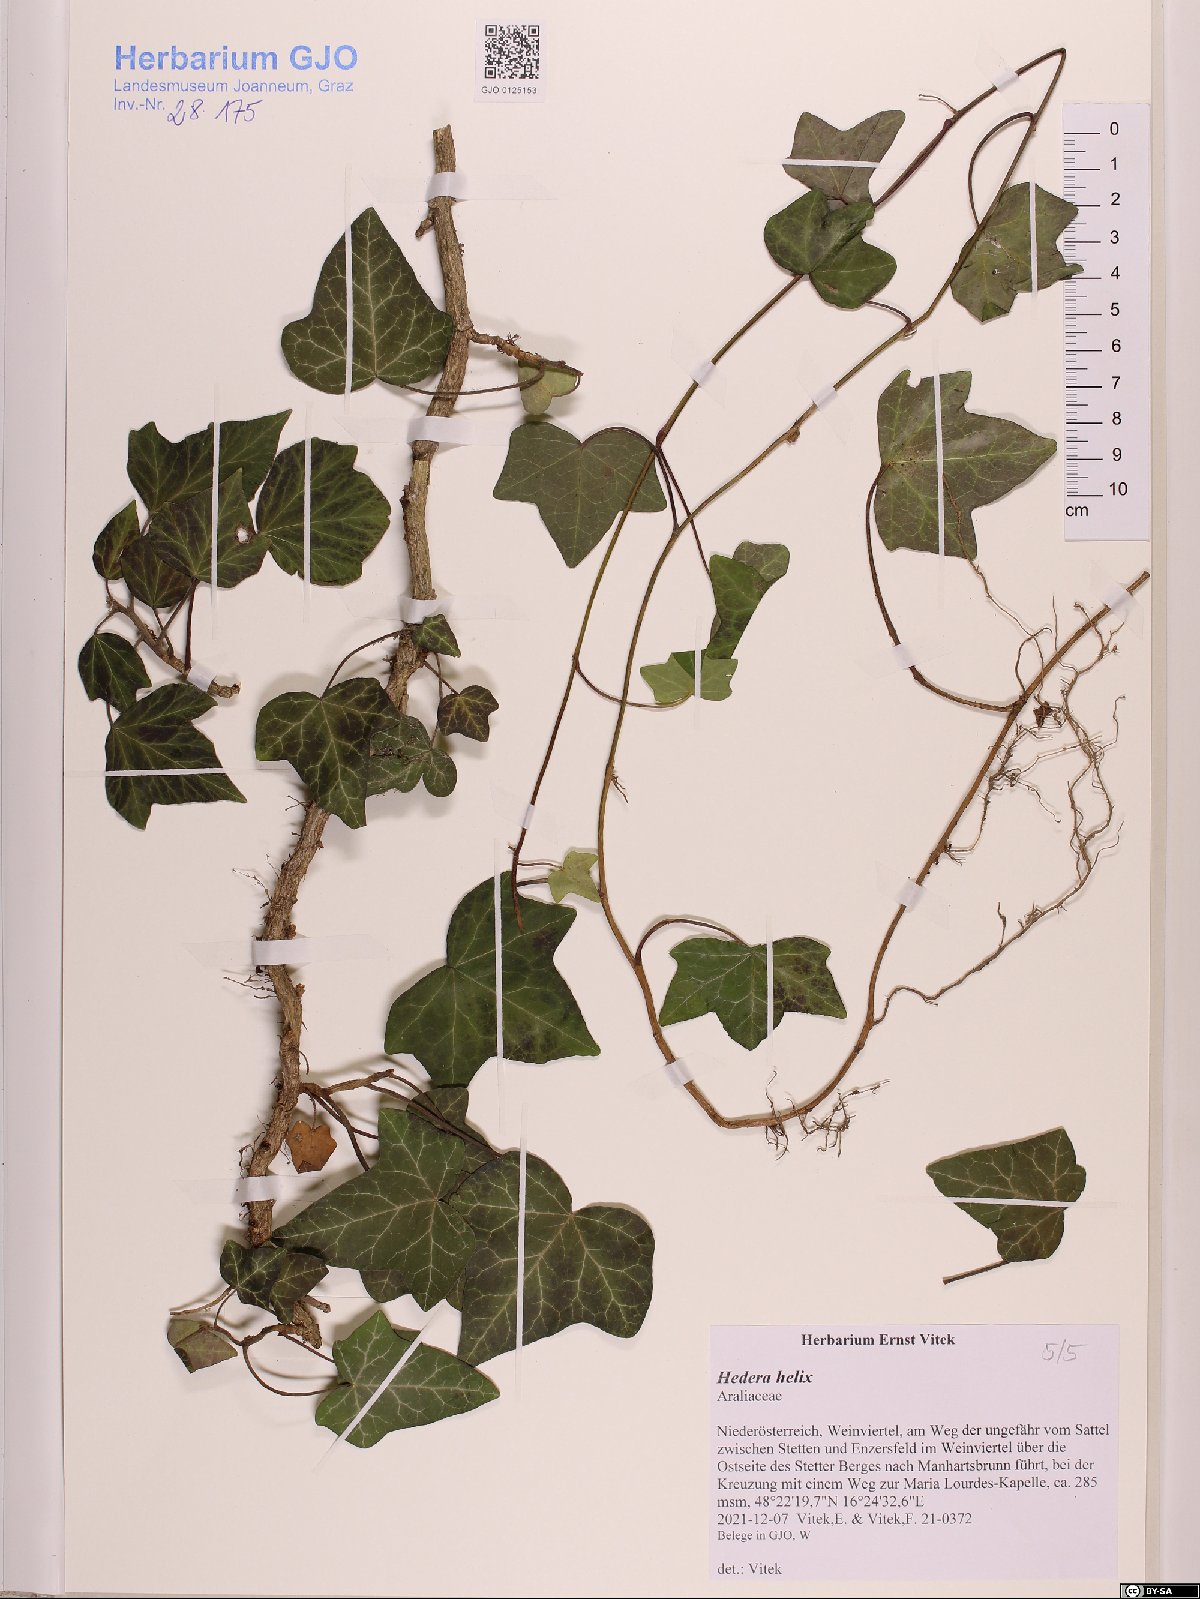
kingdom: Plantae
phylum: Tracheophyta
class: Magnoliopsida
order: Apiales
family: Araliaceae
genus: Hedera
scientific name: Hedera helix
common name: Ivy
